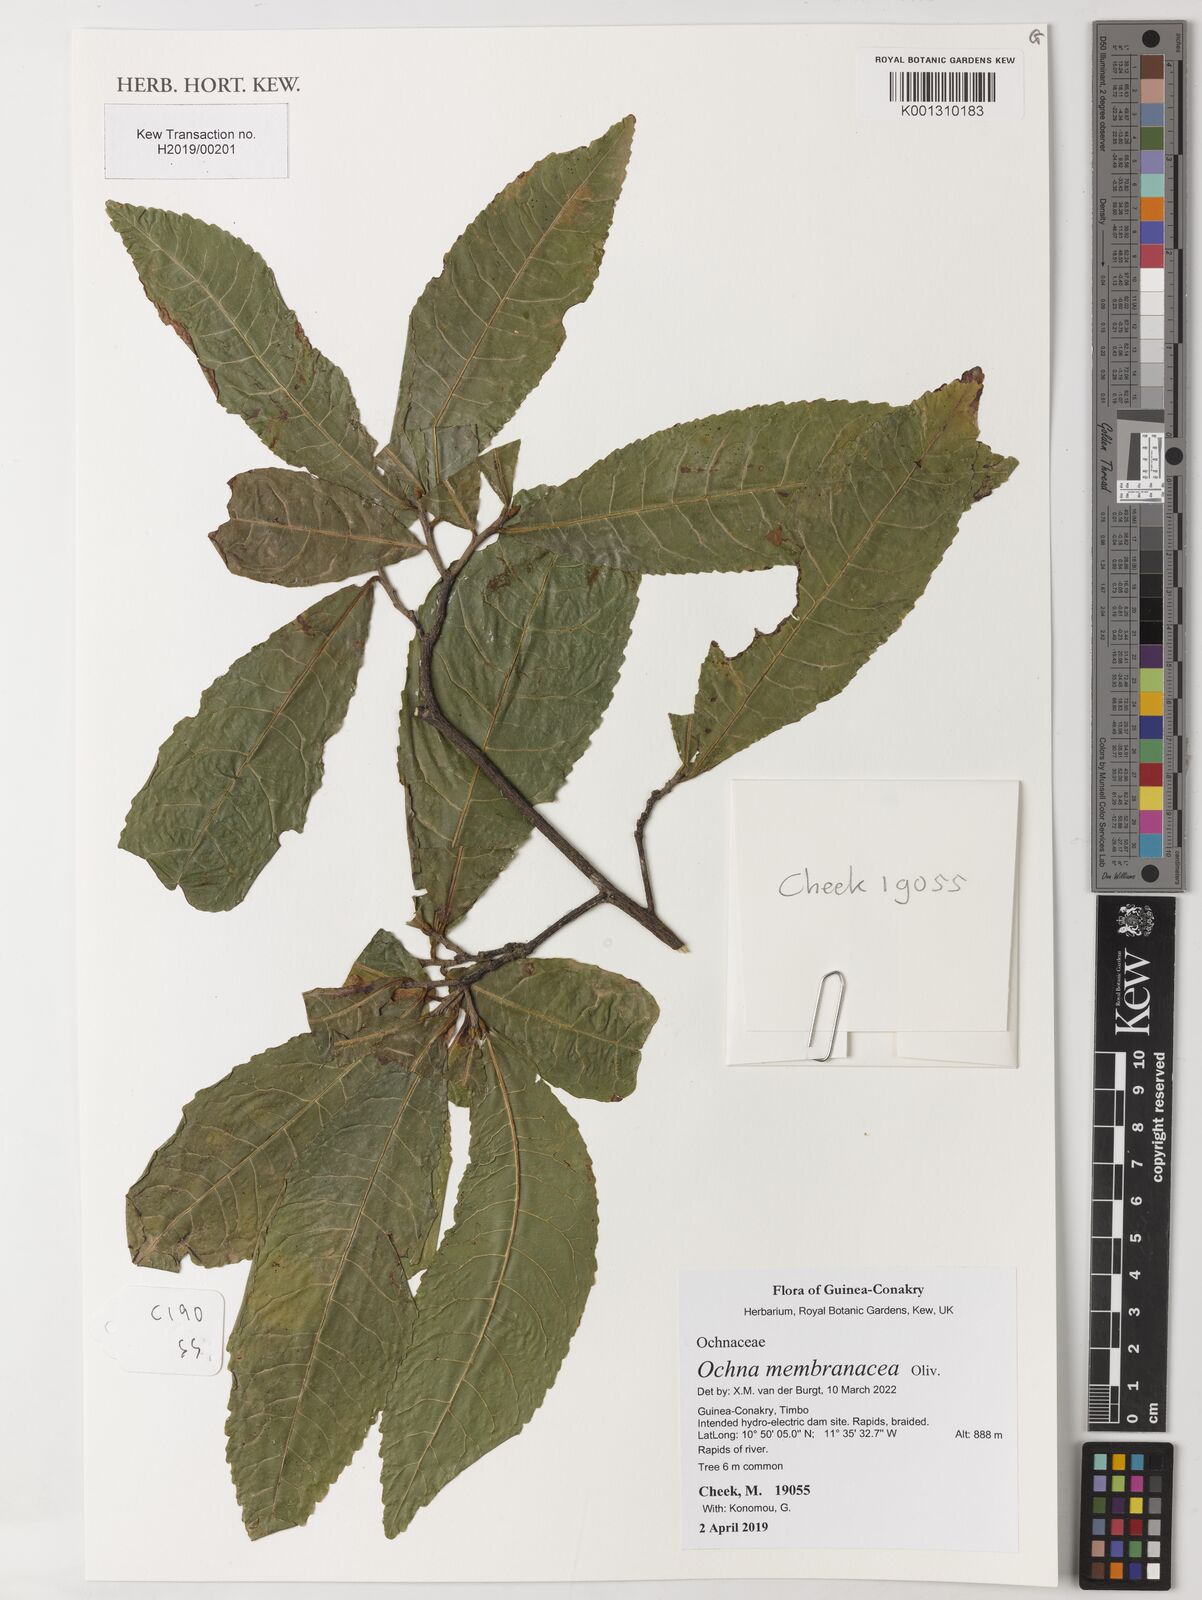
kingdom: Plantae
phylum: Tracheophyta
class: Magnoliopsida
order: Malpighiales
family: Ochnaceae
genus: Ochna
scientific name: Ochna membranacea
